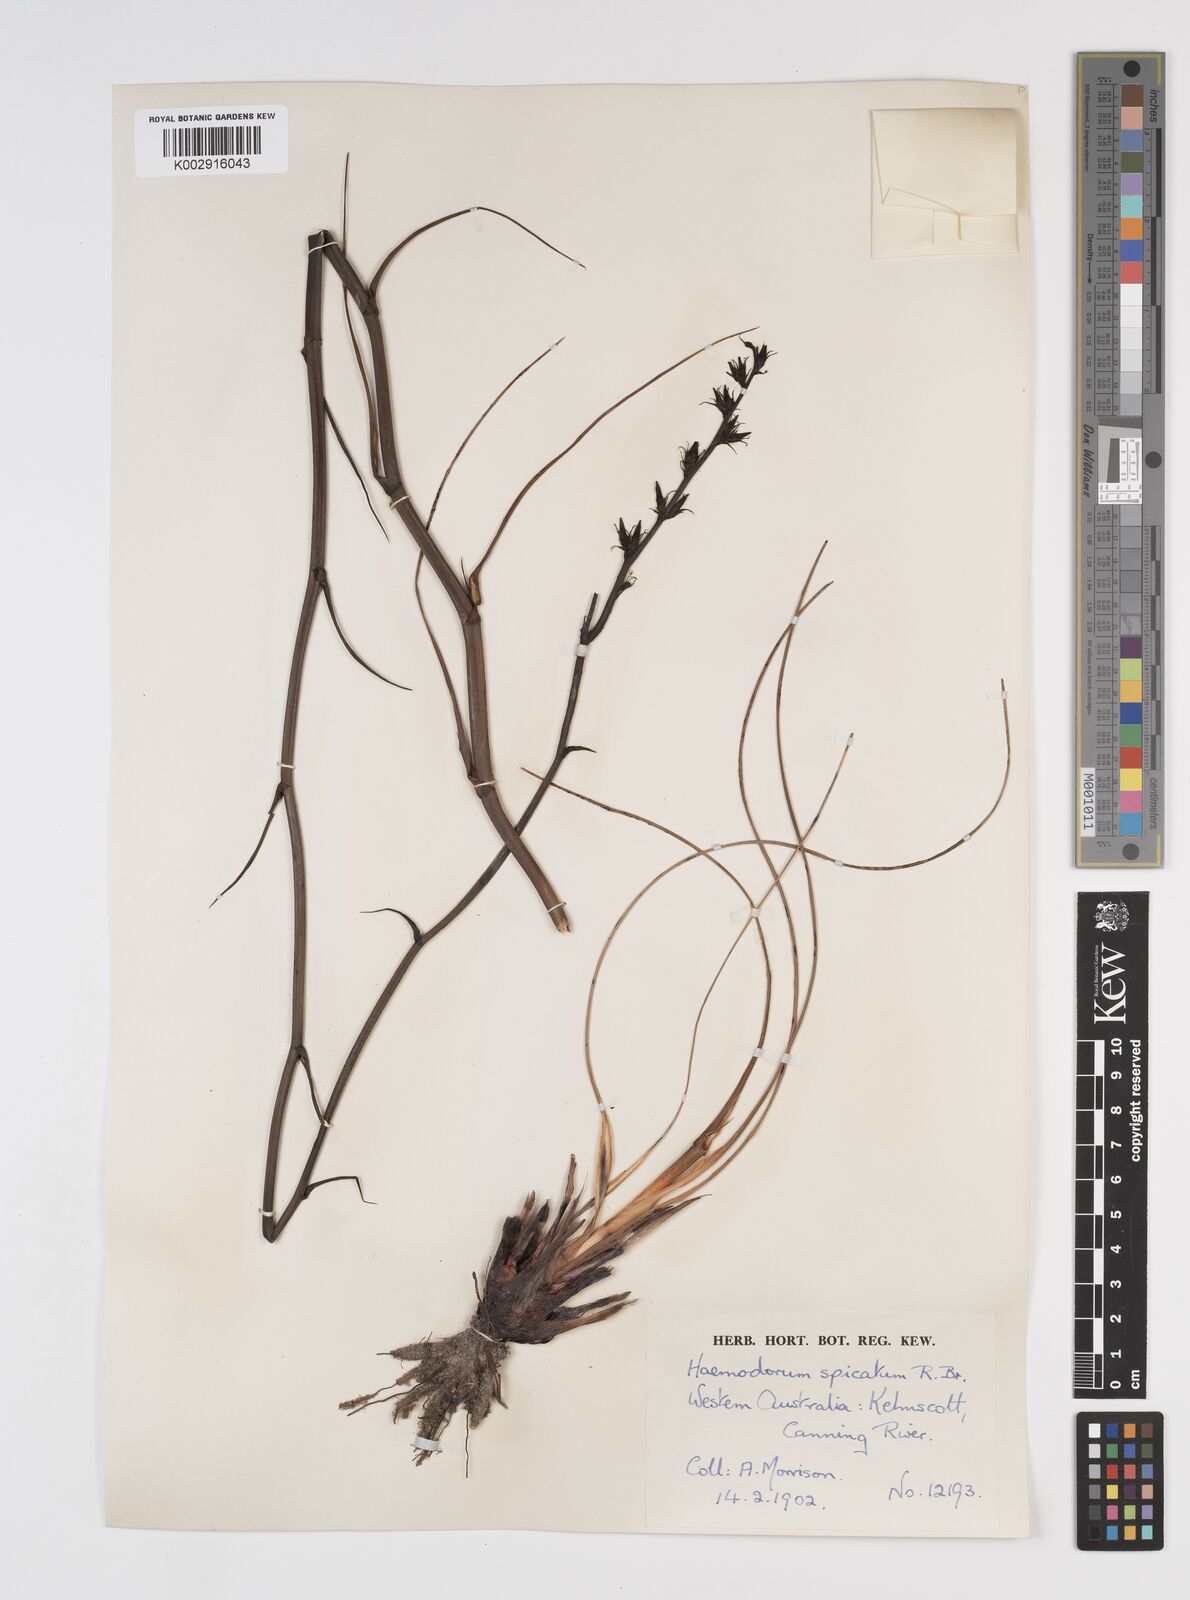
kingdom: Plantae
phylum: Tracheophyta
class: Liliopsida
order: Commelinales
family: Haemodoraceae
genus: Haemodorum
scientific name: Haemodorum spicatum
